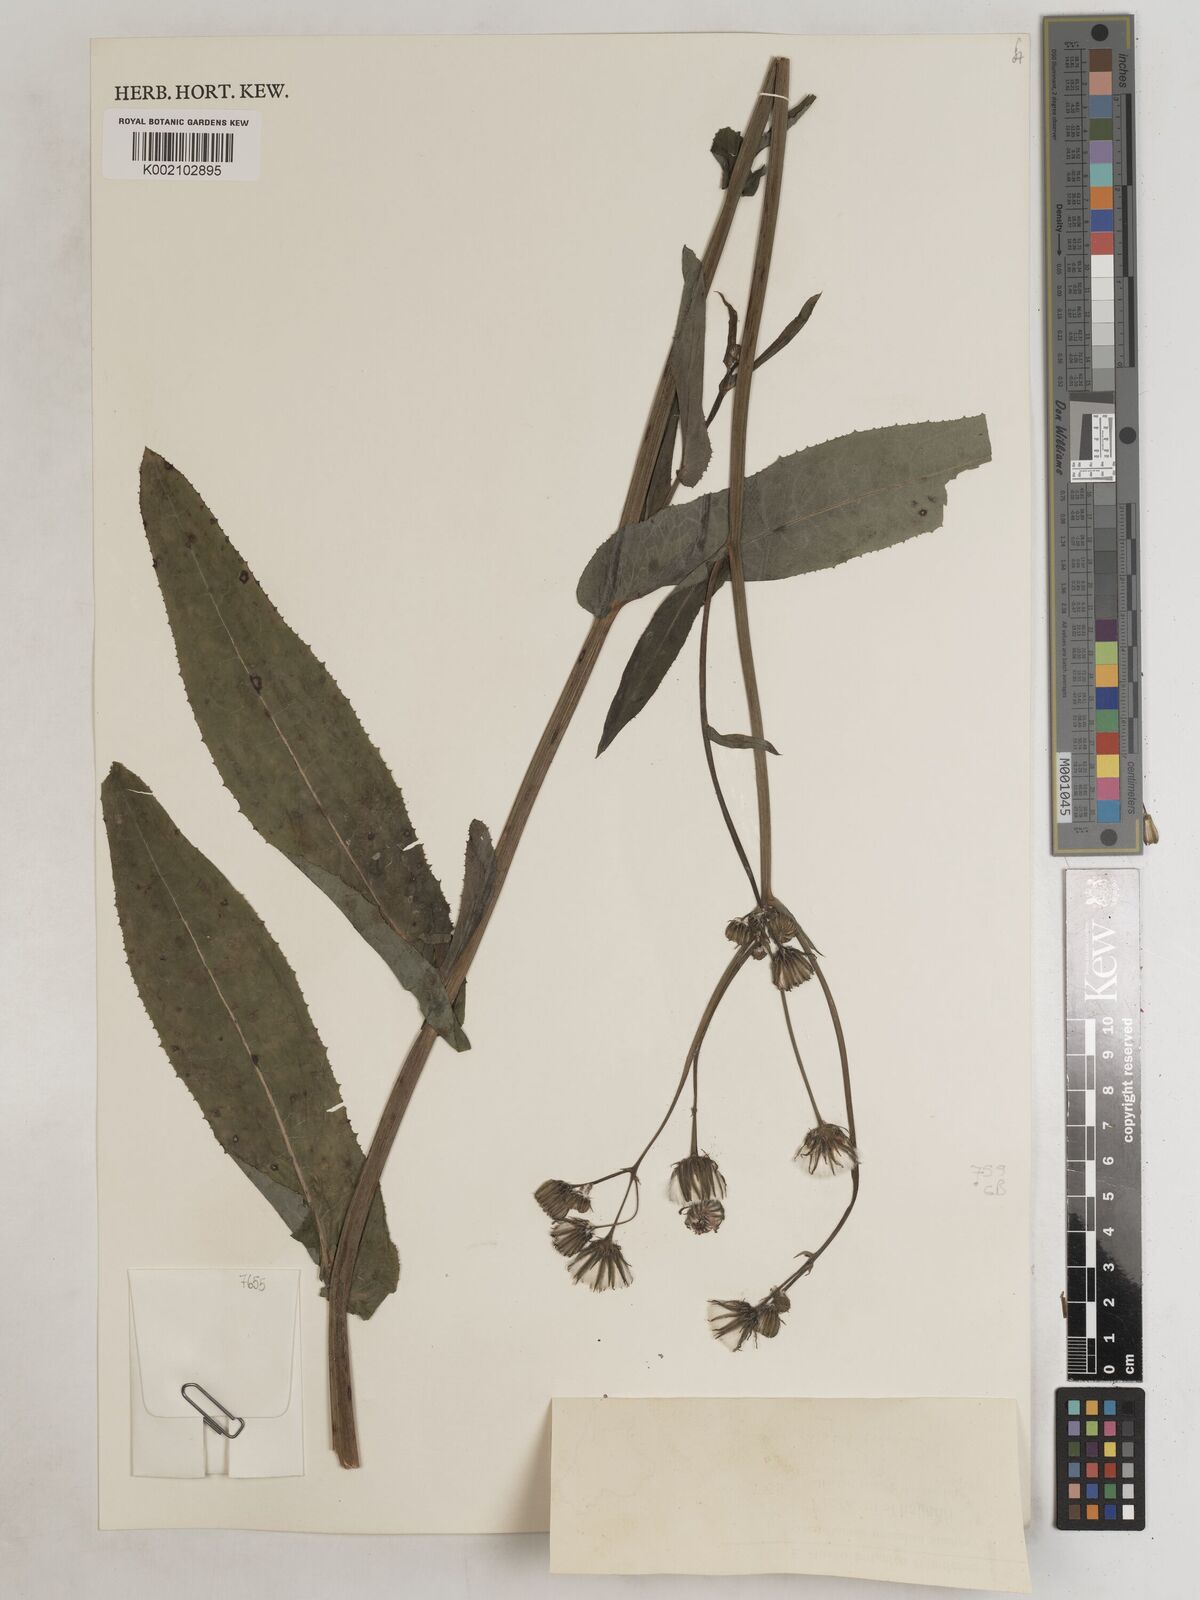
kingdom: Plantae
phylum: Tracheophyta
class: Magnoliopsida
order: Asterales
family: Asteraceae
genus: Sonchus
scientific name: Sonchus wightianus
